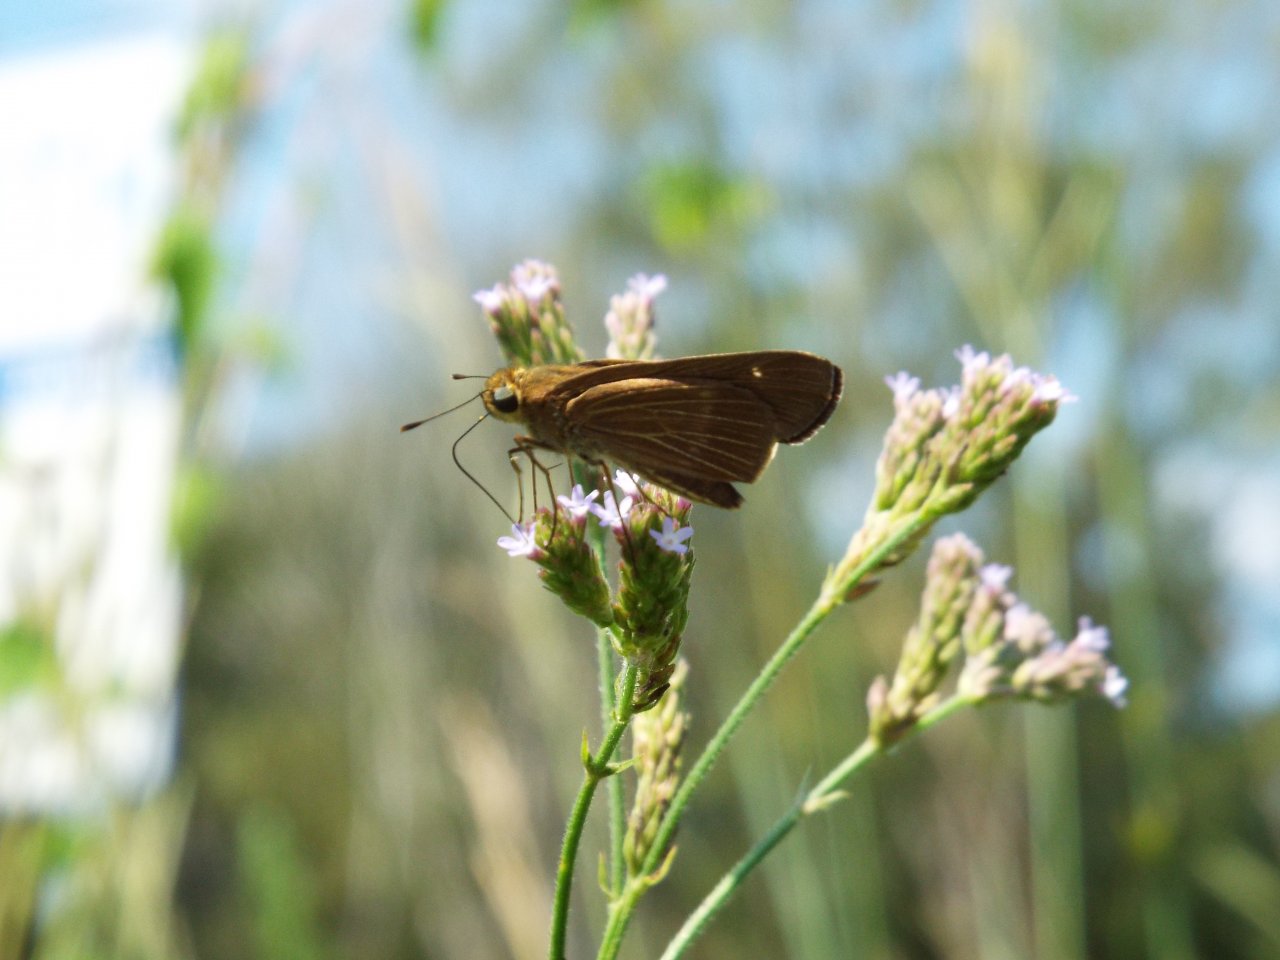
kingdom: Animalia
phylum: Arthropoda
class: Insecta
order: Lepidoptera
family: Hesperiidae
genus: Panoquina
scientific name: Panoquina ocola
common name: Ocola Skipper
